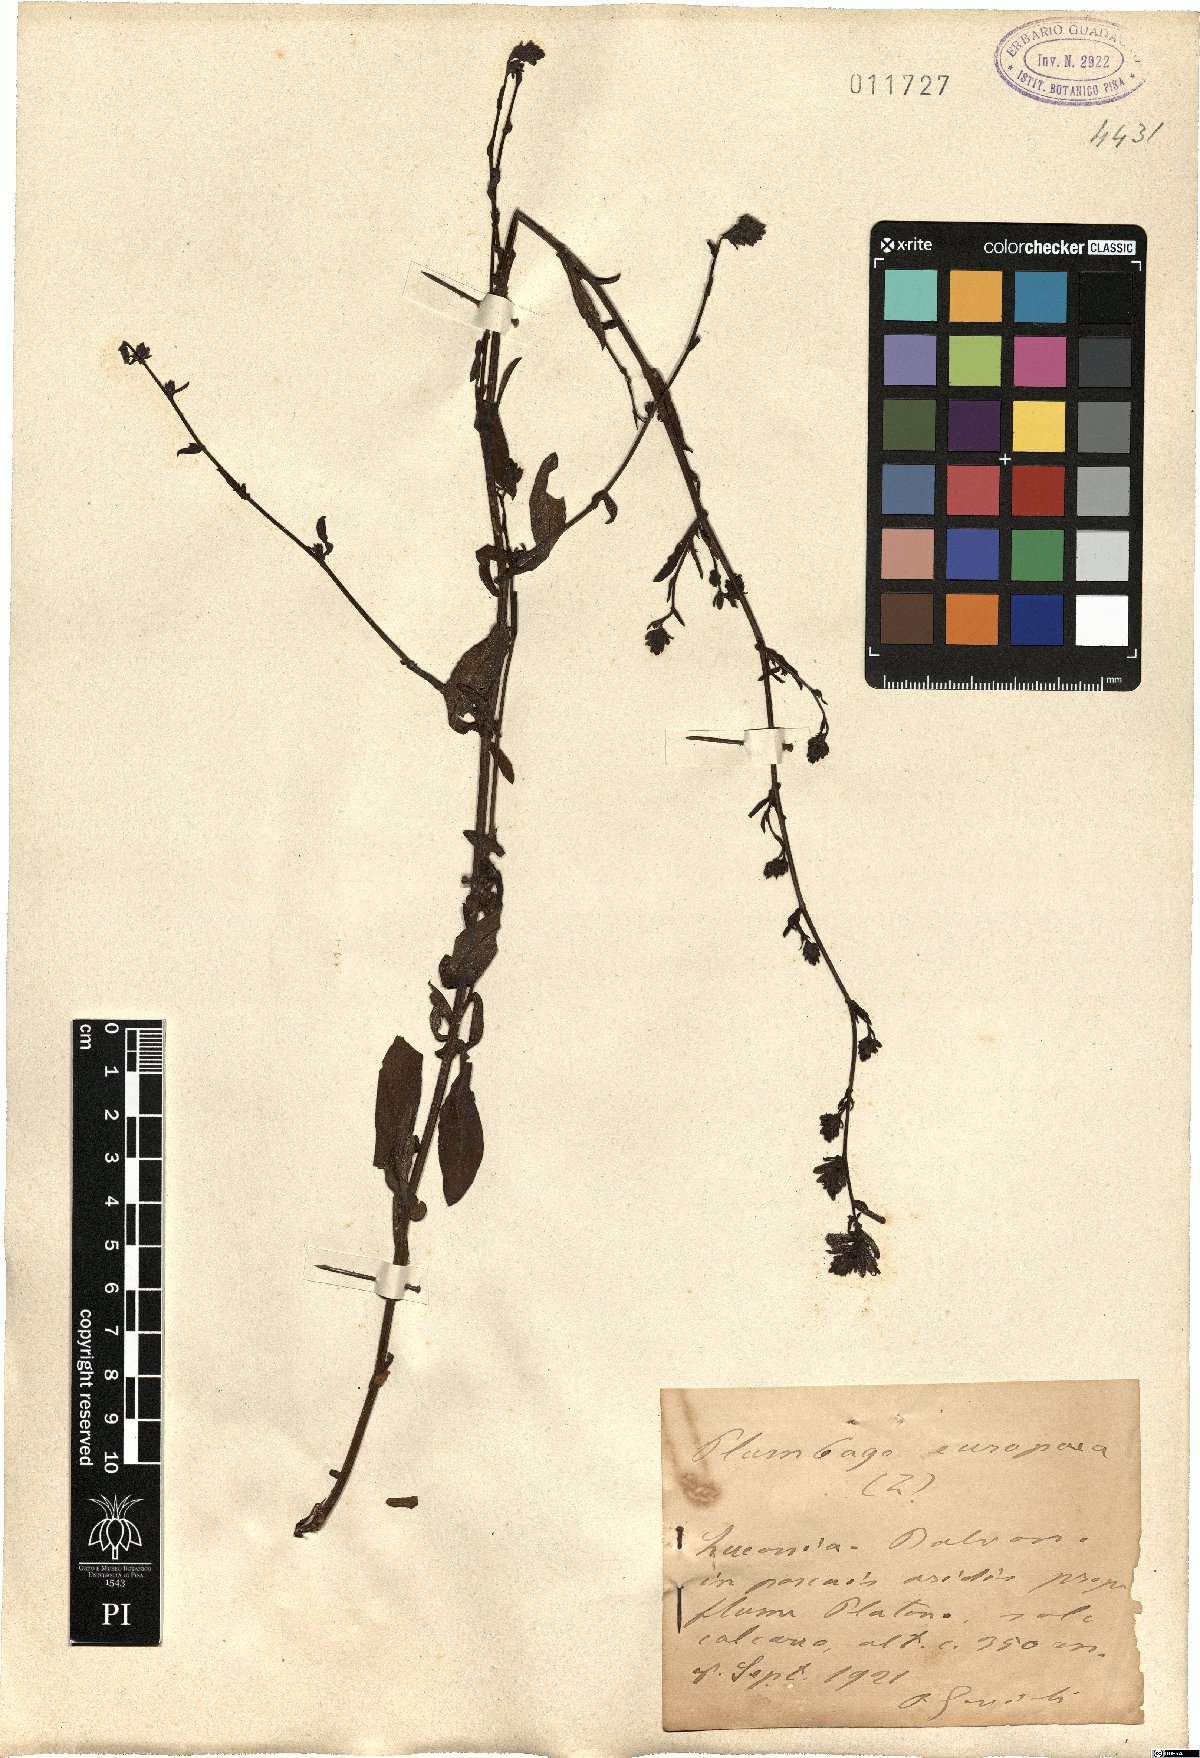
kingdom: Plantae
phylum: Tracheophyta
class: Magnoliopsida
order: Caryophyllales
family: Plumbaginaceae
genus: Plumbago
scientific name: Plumbago europaea
